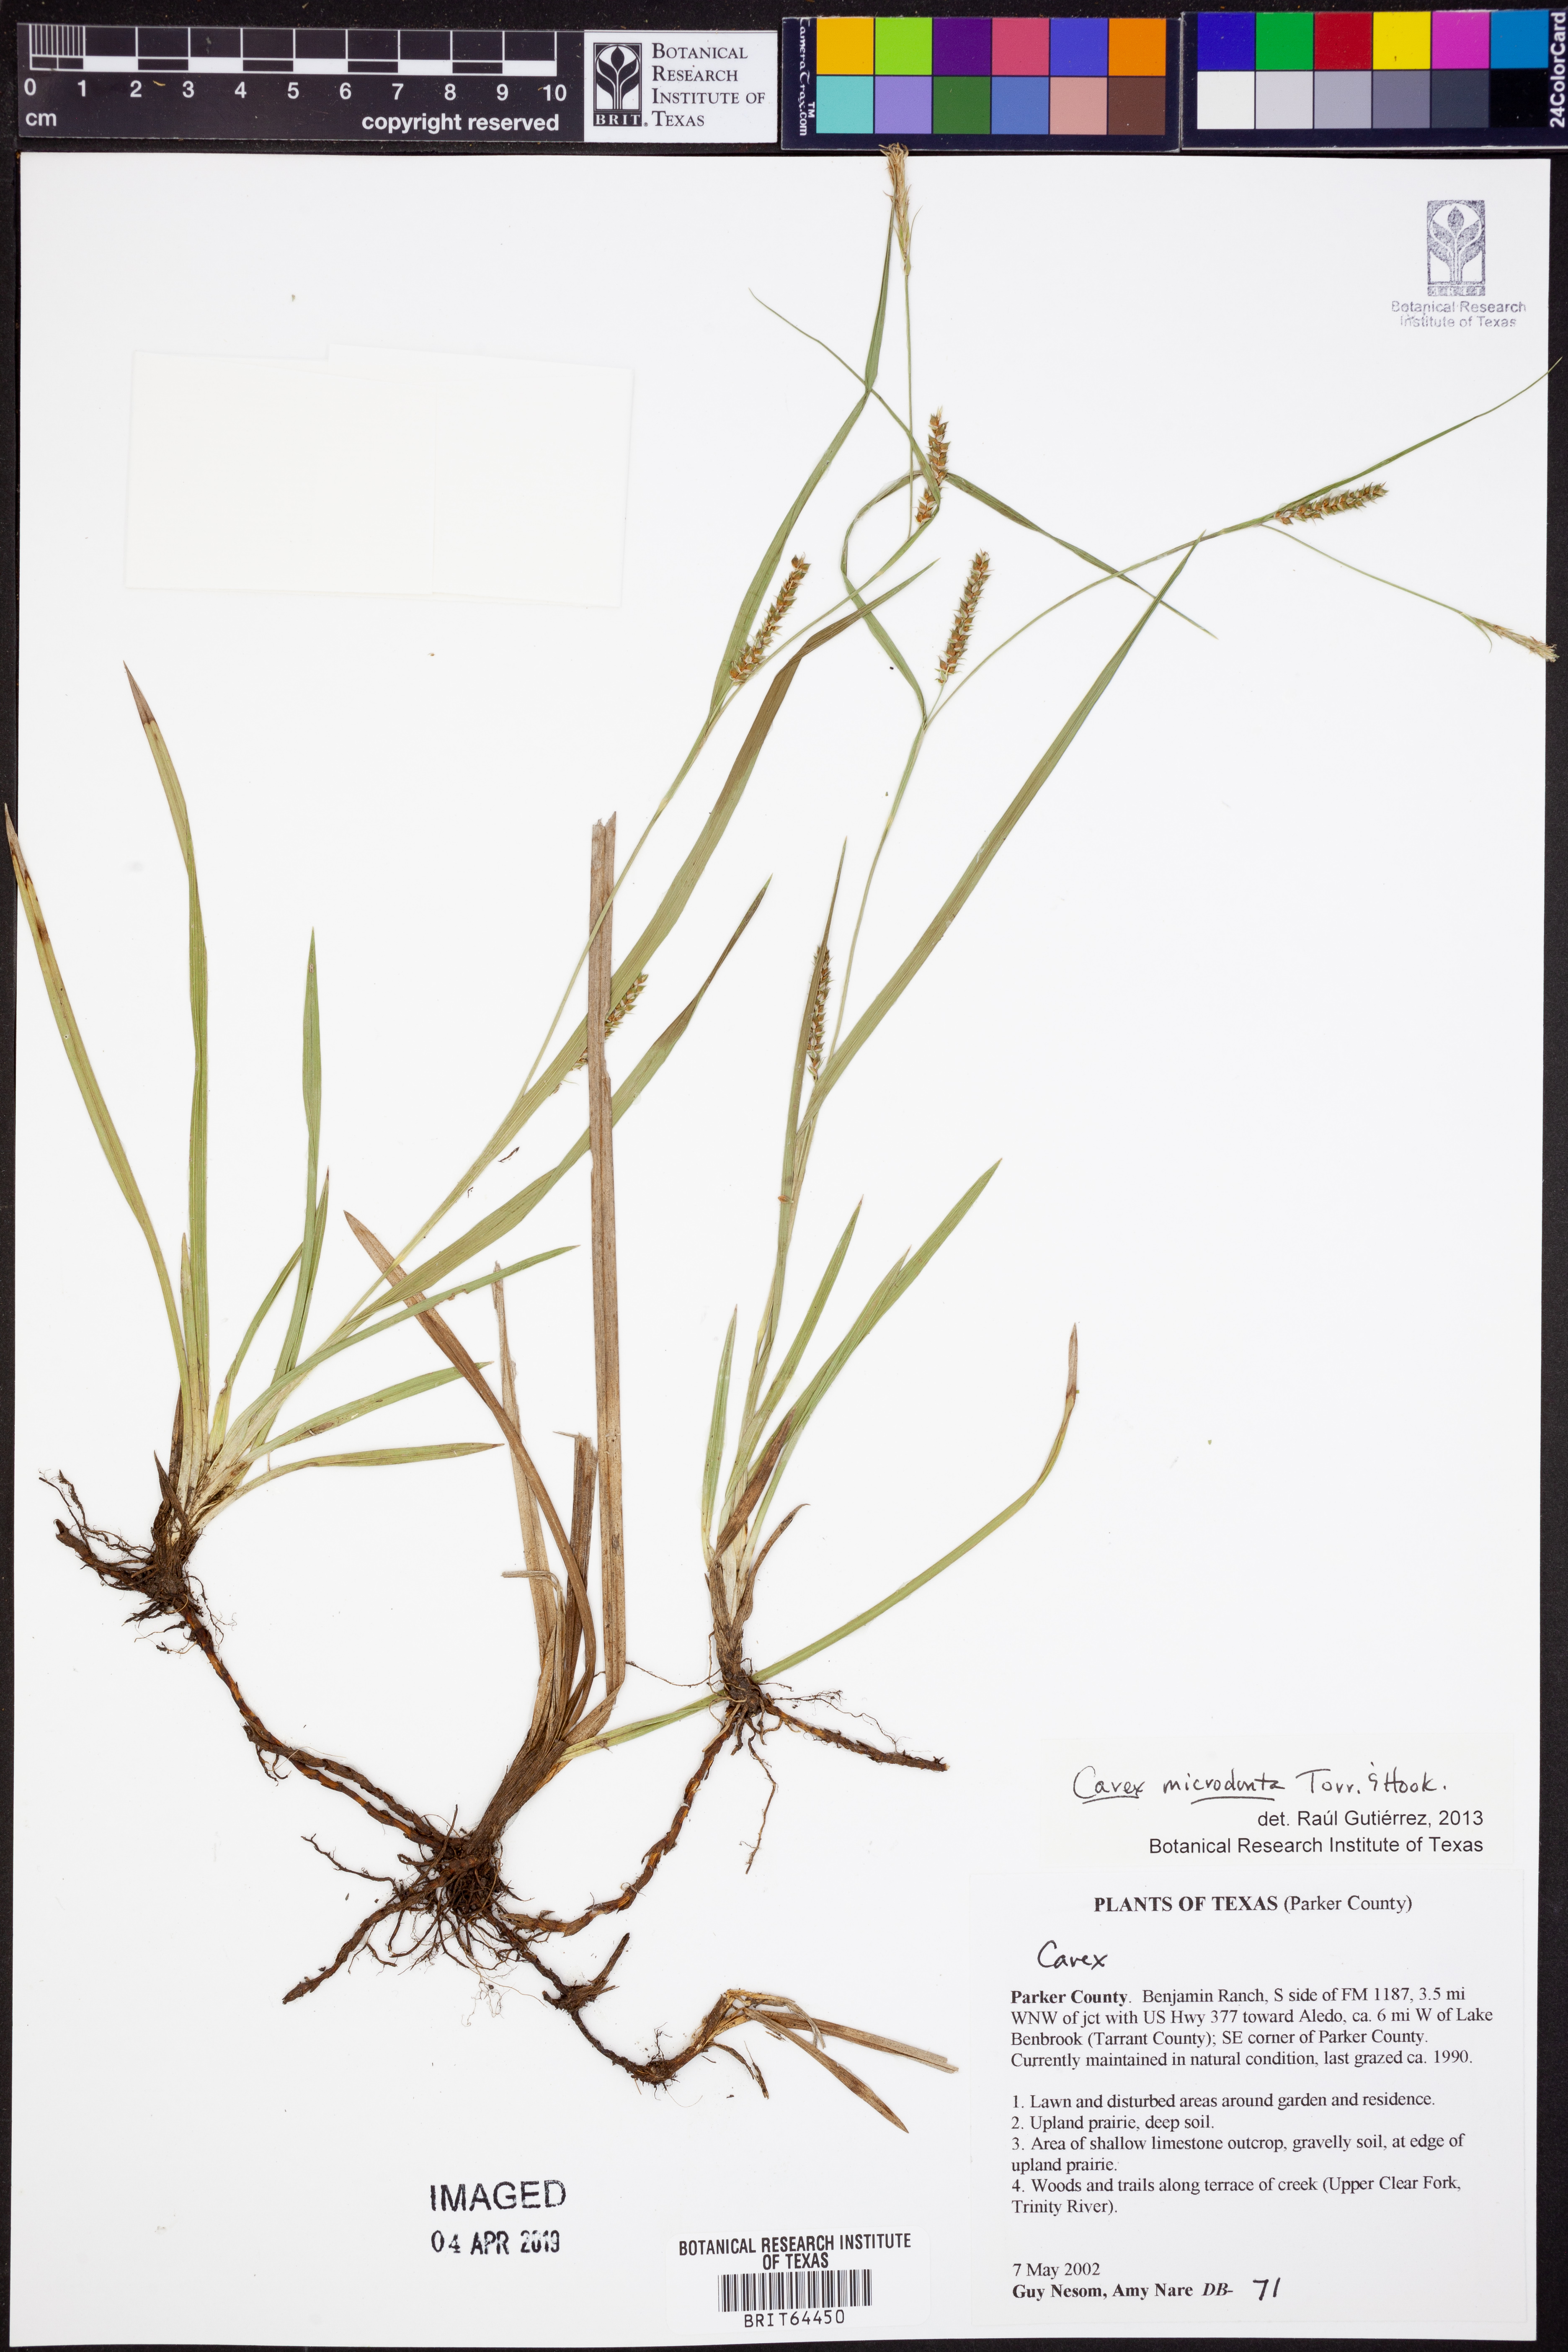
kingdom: Plantae
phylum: Tracheophyta
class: Liliopsida
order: Poales
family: Cyperaceae
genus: Carex
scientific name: Carex microdonta
